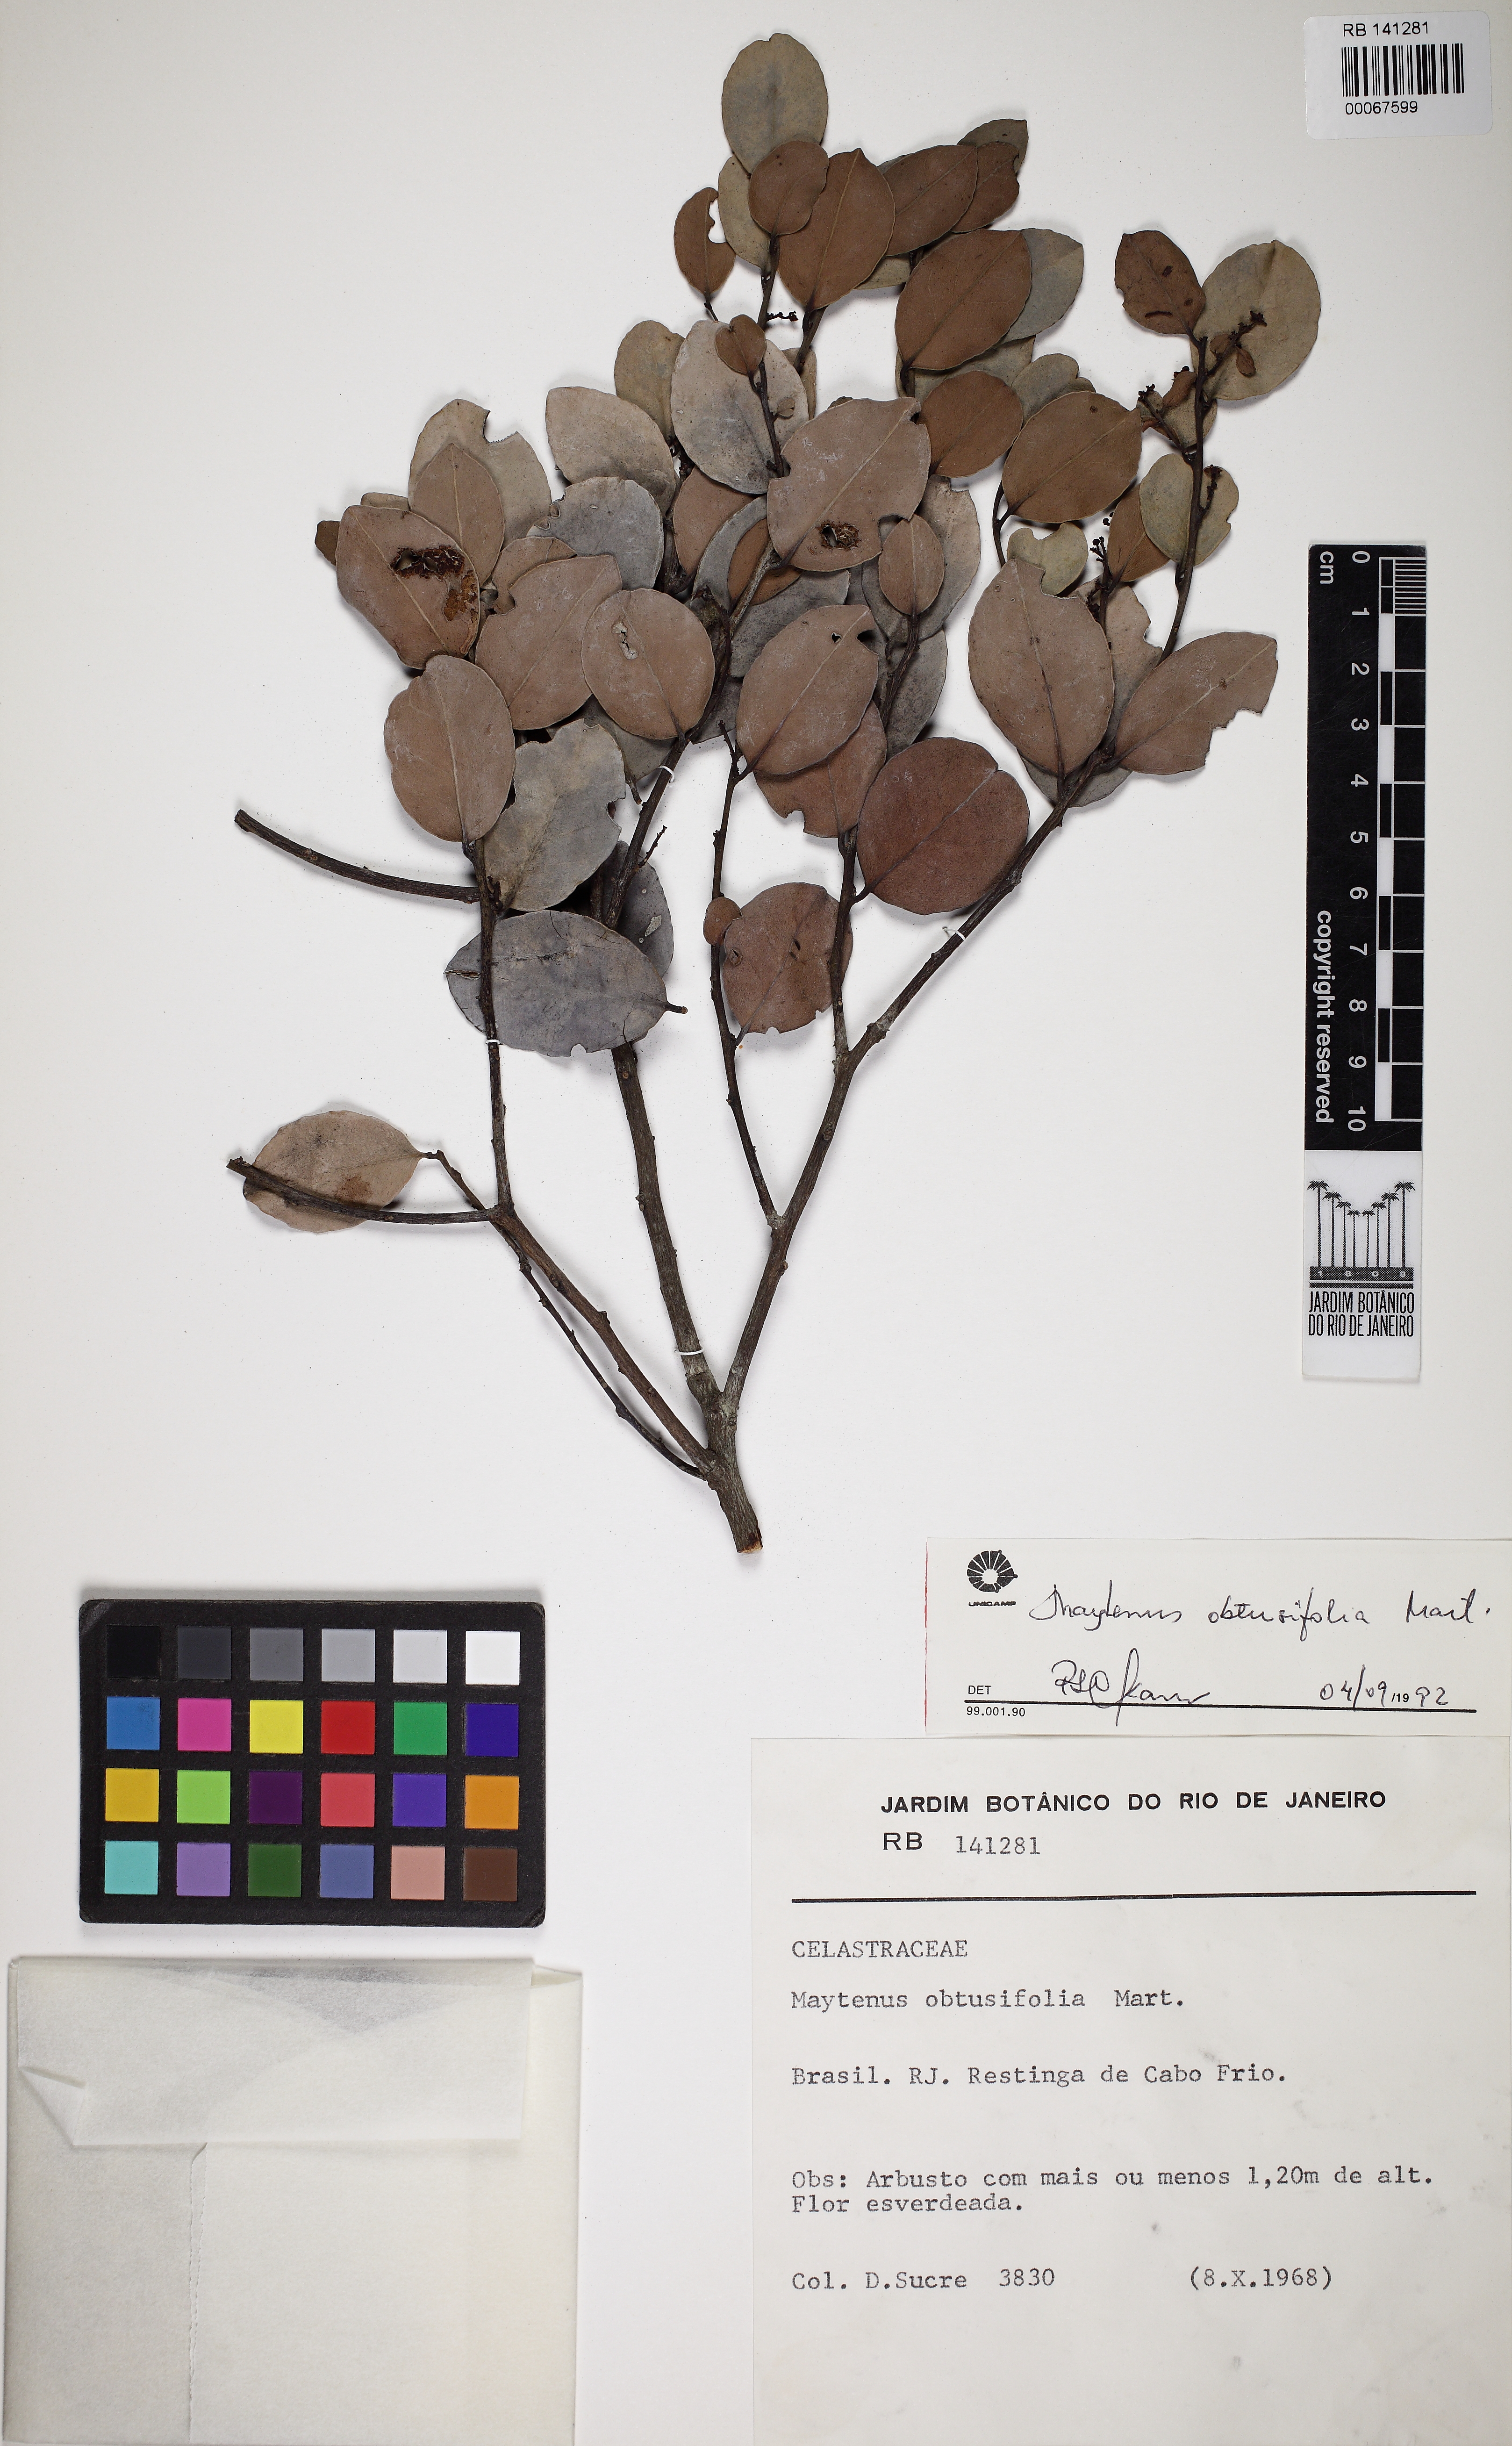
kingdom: Plantae
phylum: Tracheophyta
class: Magnoliopsida
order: Celastrales
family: Celastraceae
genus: Monteverdia
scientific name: Monteverdia obtusifolia
